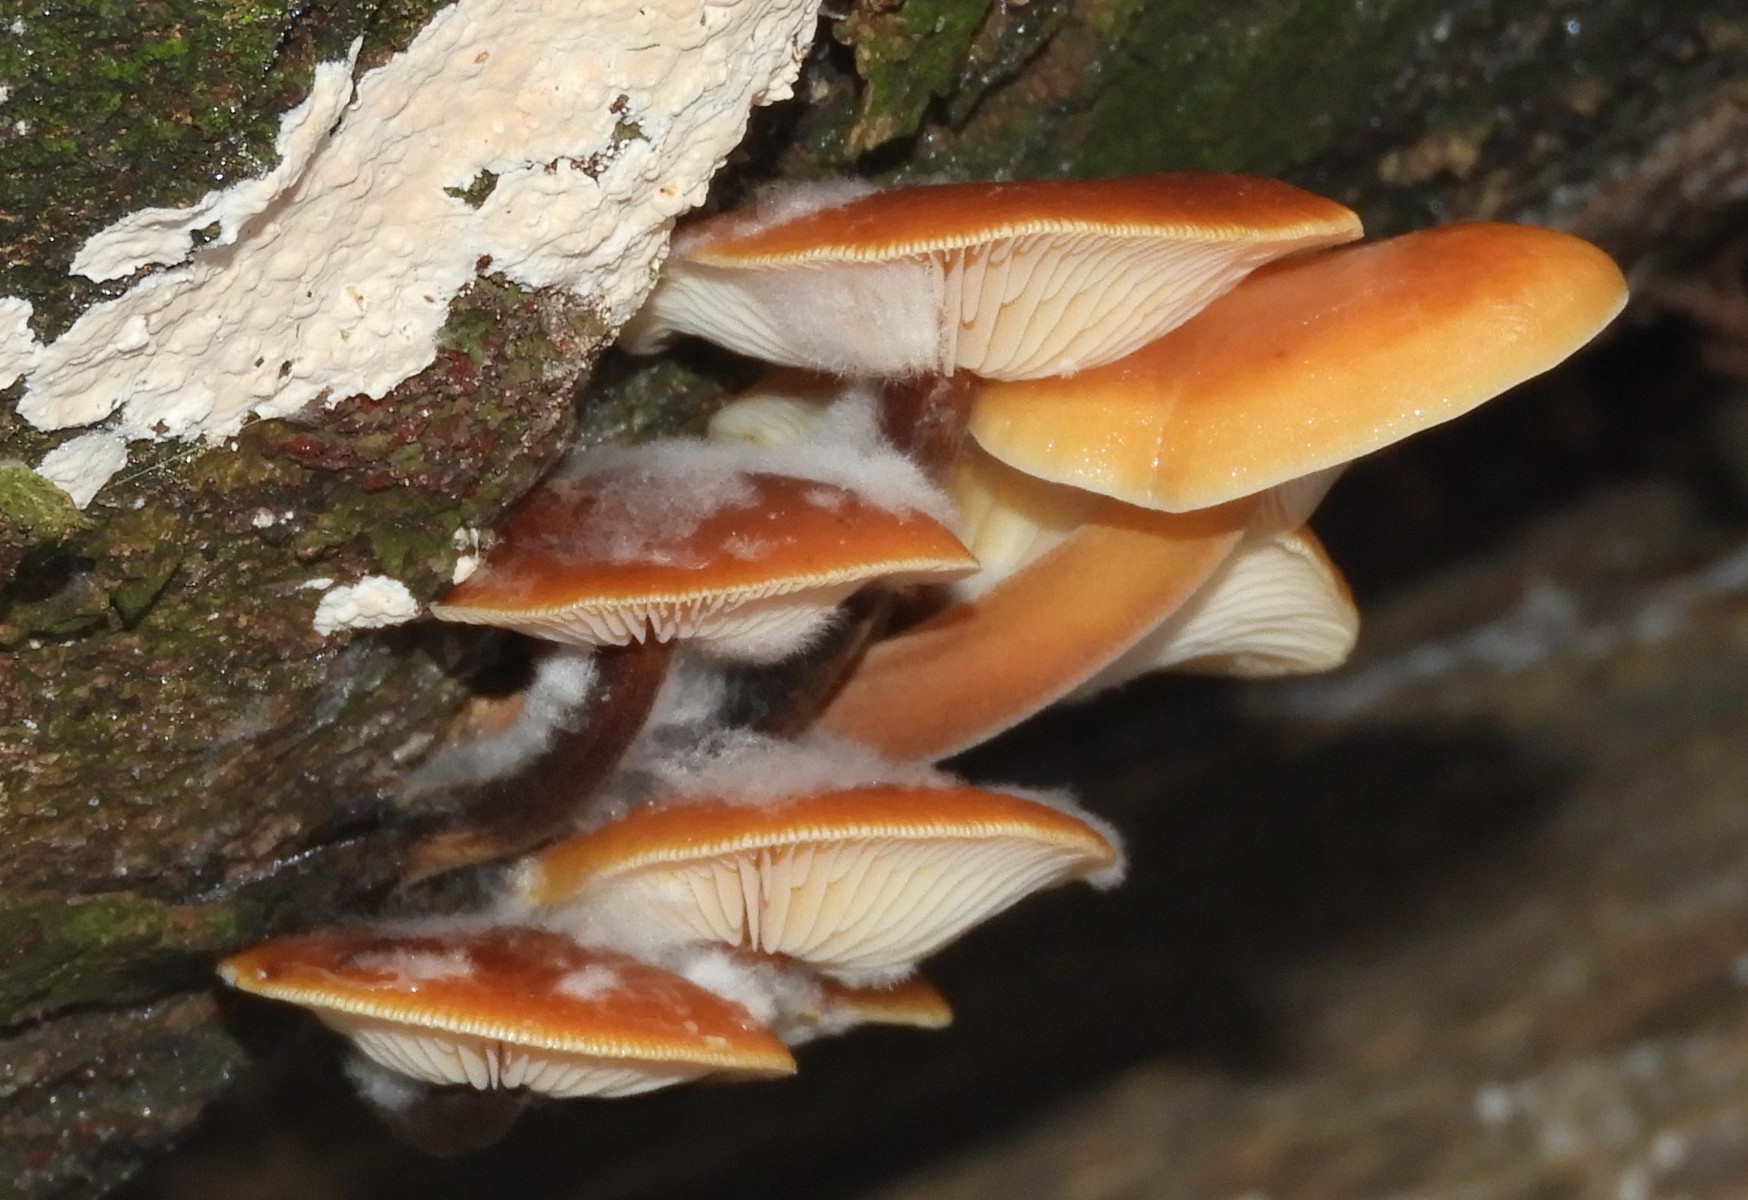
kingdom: Fungi
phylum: Basidiomycota
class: Agaricomycetes
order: Agaricales
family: Physalacriaceae
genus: Flammulina
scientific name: Flammulina velutipes
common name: gul fløjlsfod
